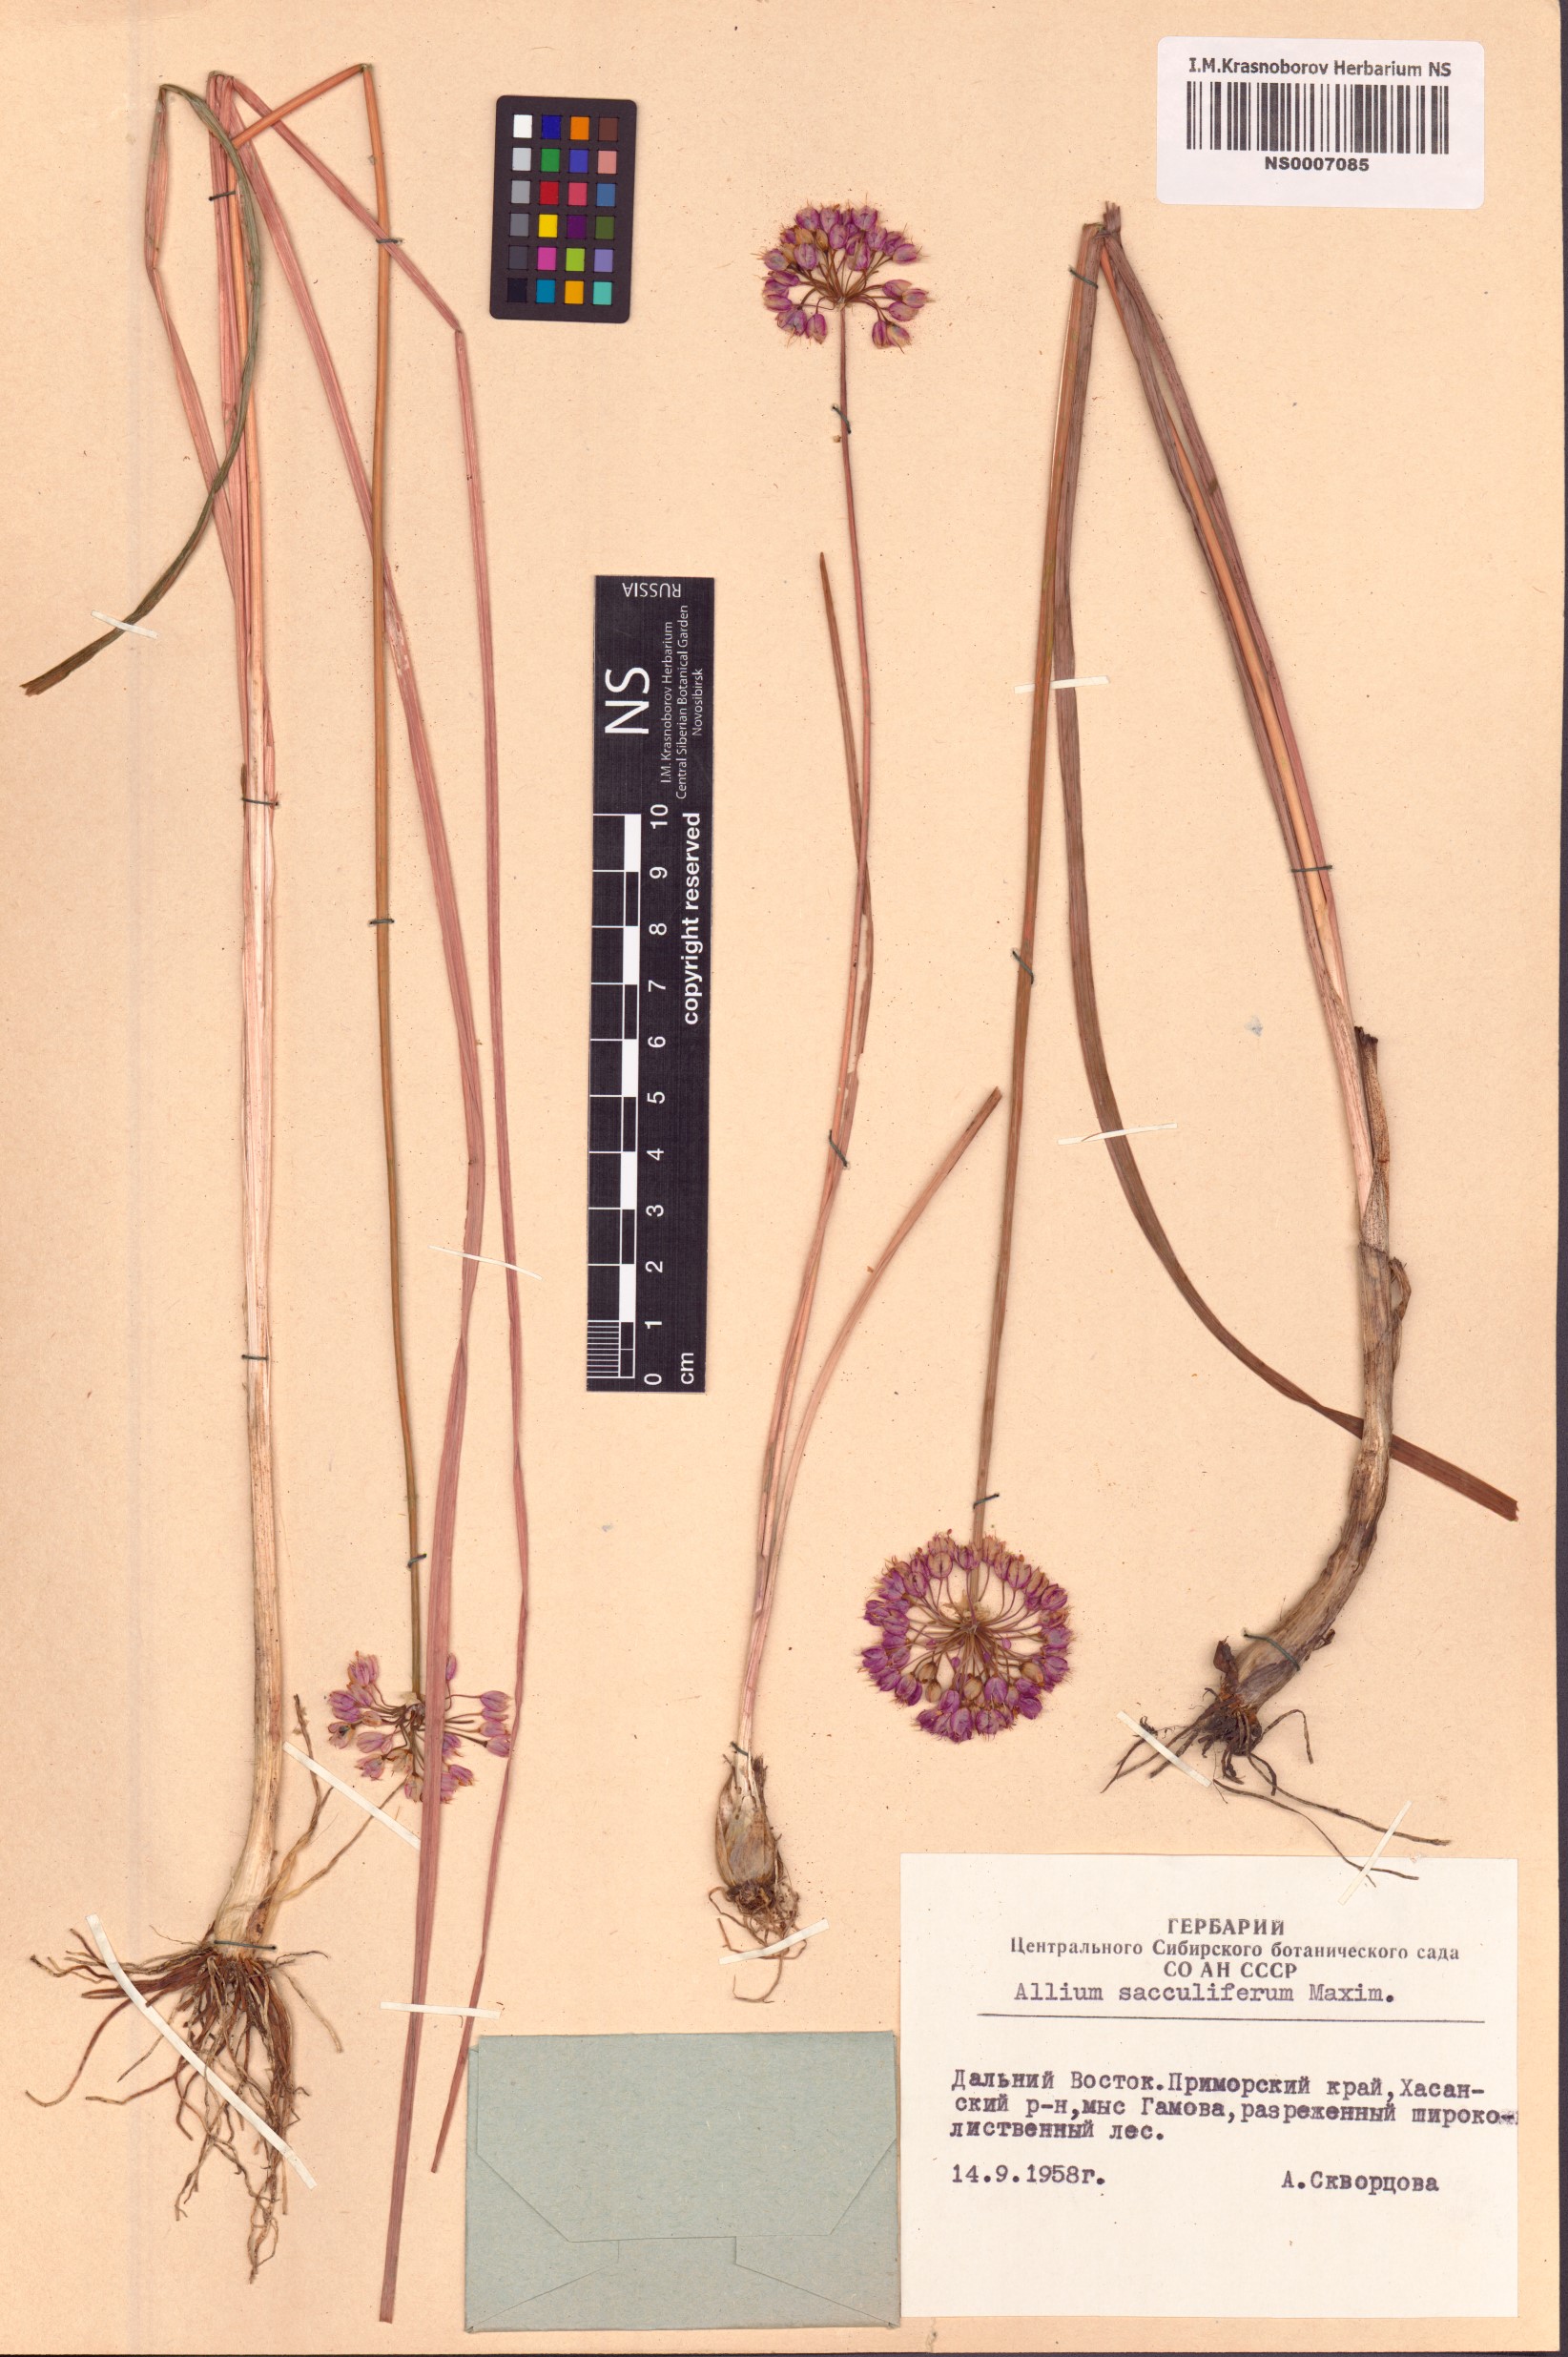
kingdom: Plantae
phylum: Tracheophyta
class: Liliopsida
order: Asparagales
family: Amaryllidaceae
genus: Allium
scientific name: Allium sacculiferum
